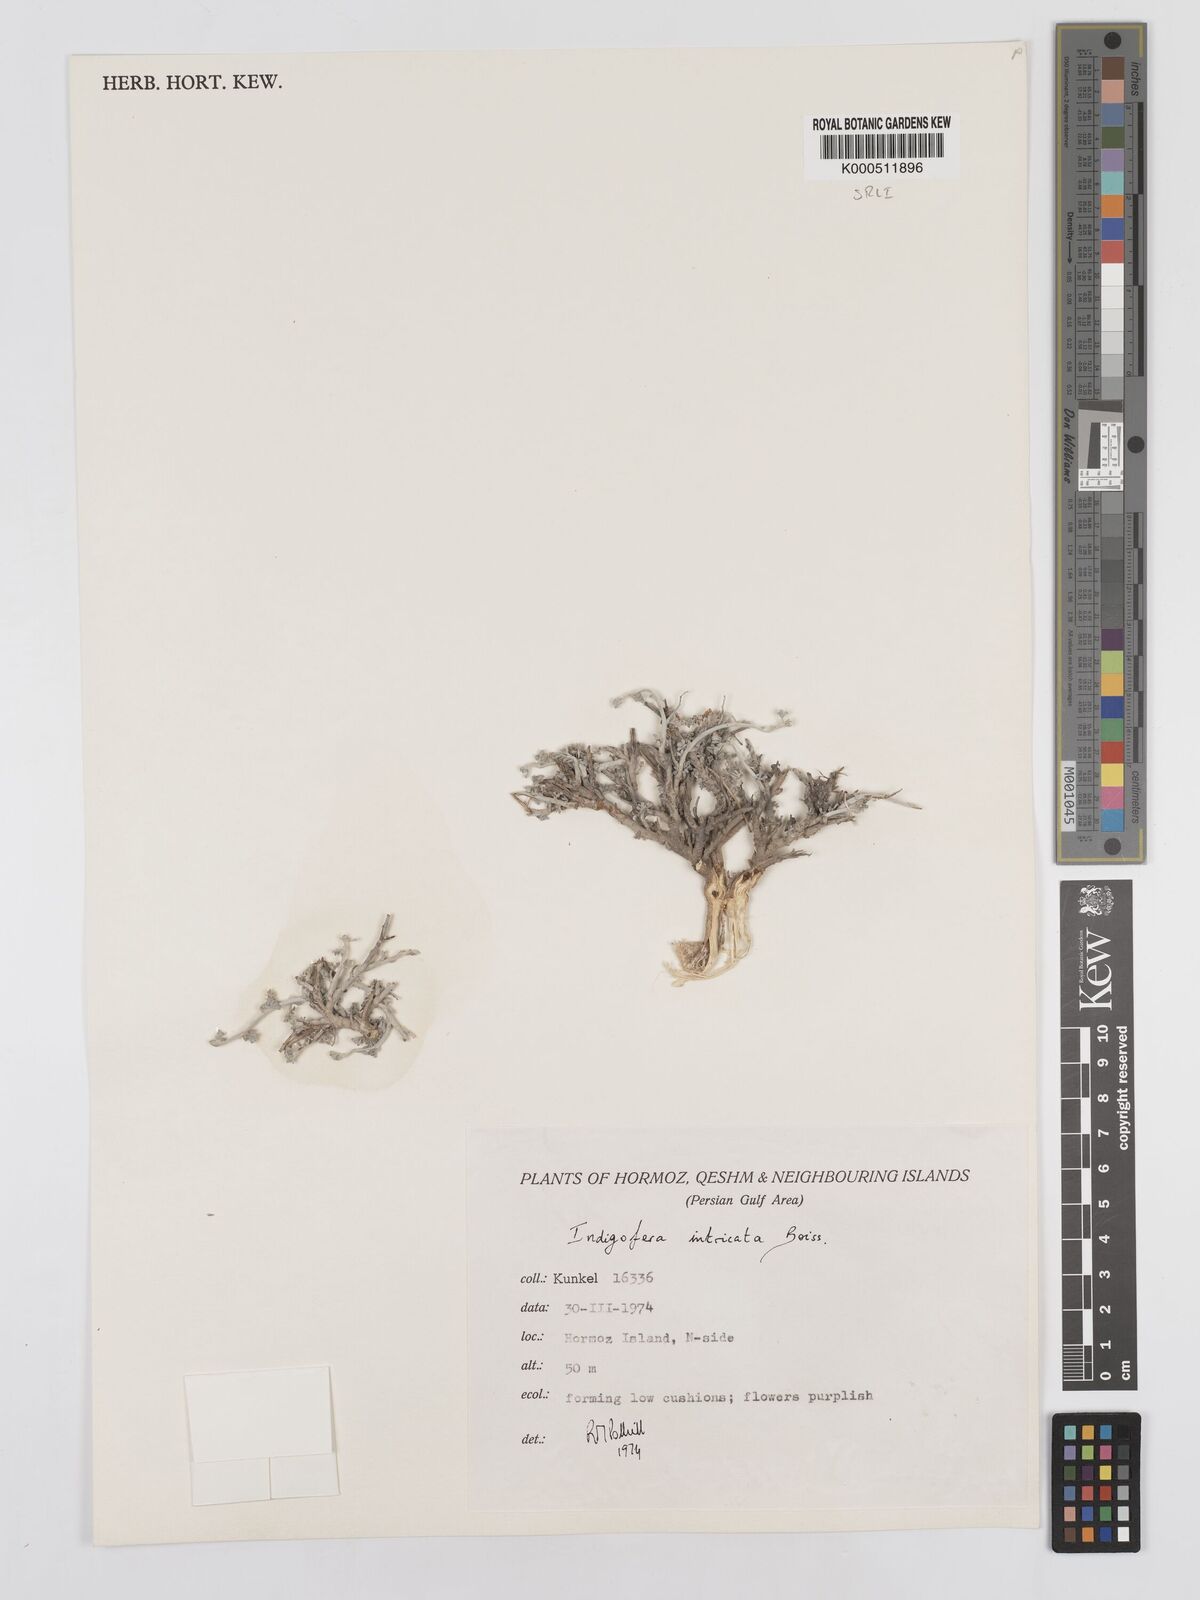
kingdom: Plantae
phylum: Tracheophyta
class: Magnoliopsida
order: Fabales
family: Fabaceae
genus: Indigofera
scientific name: Indigofera intricata
